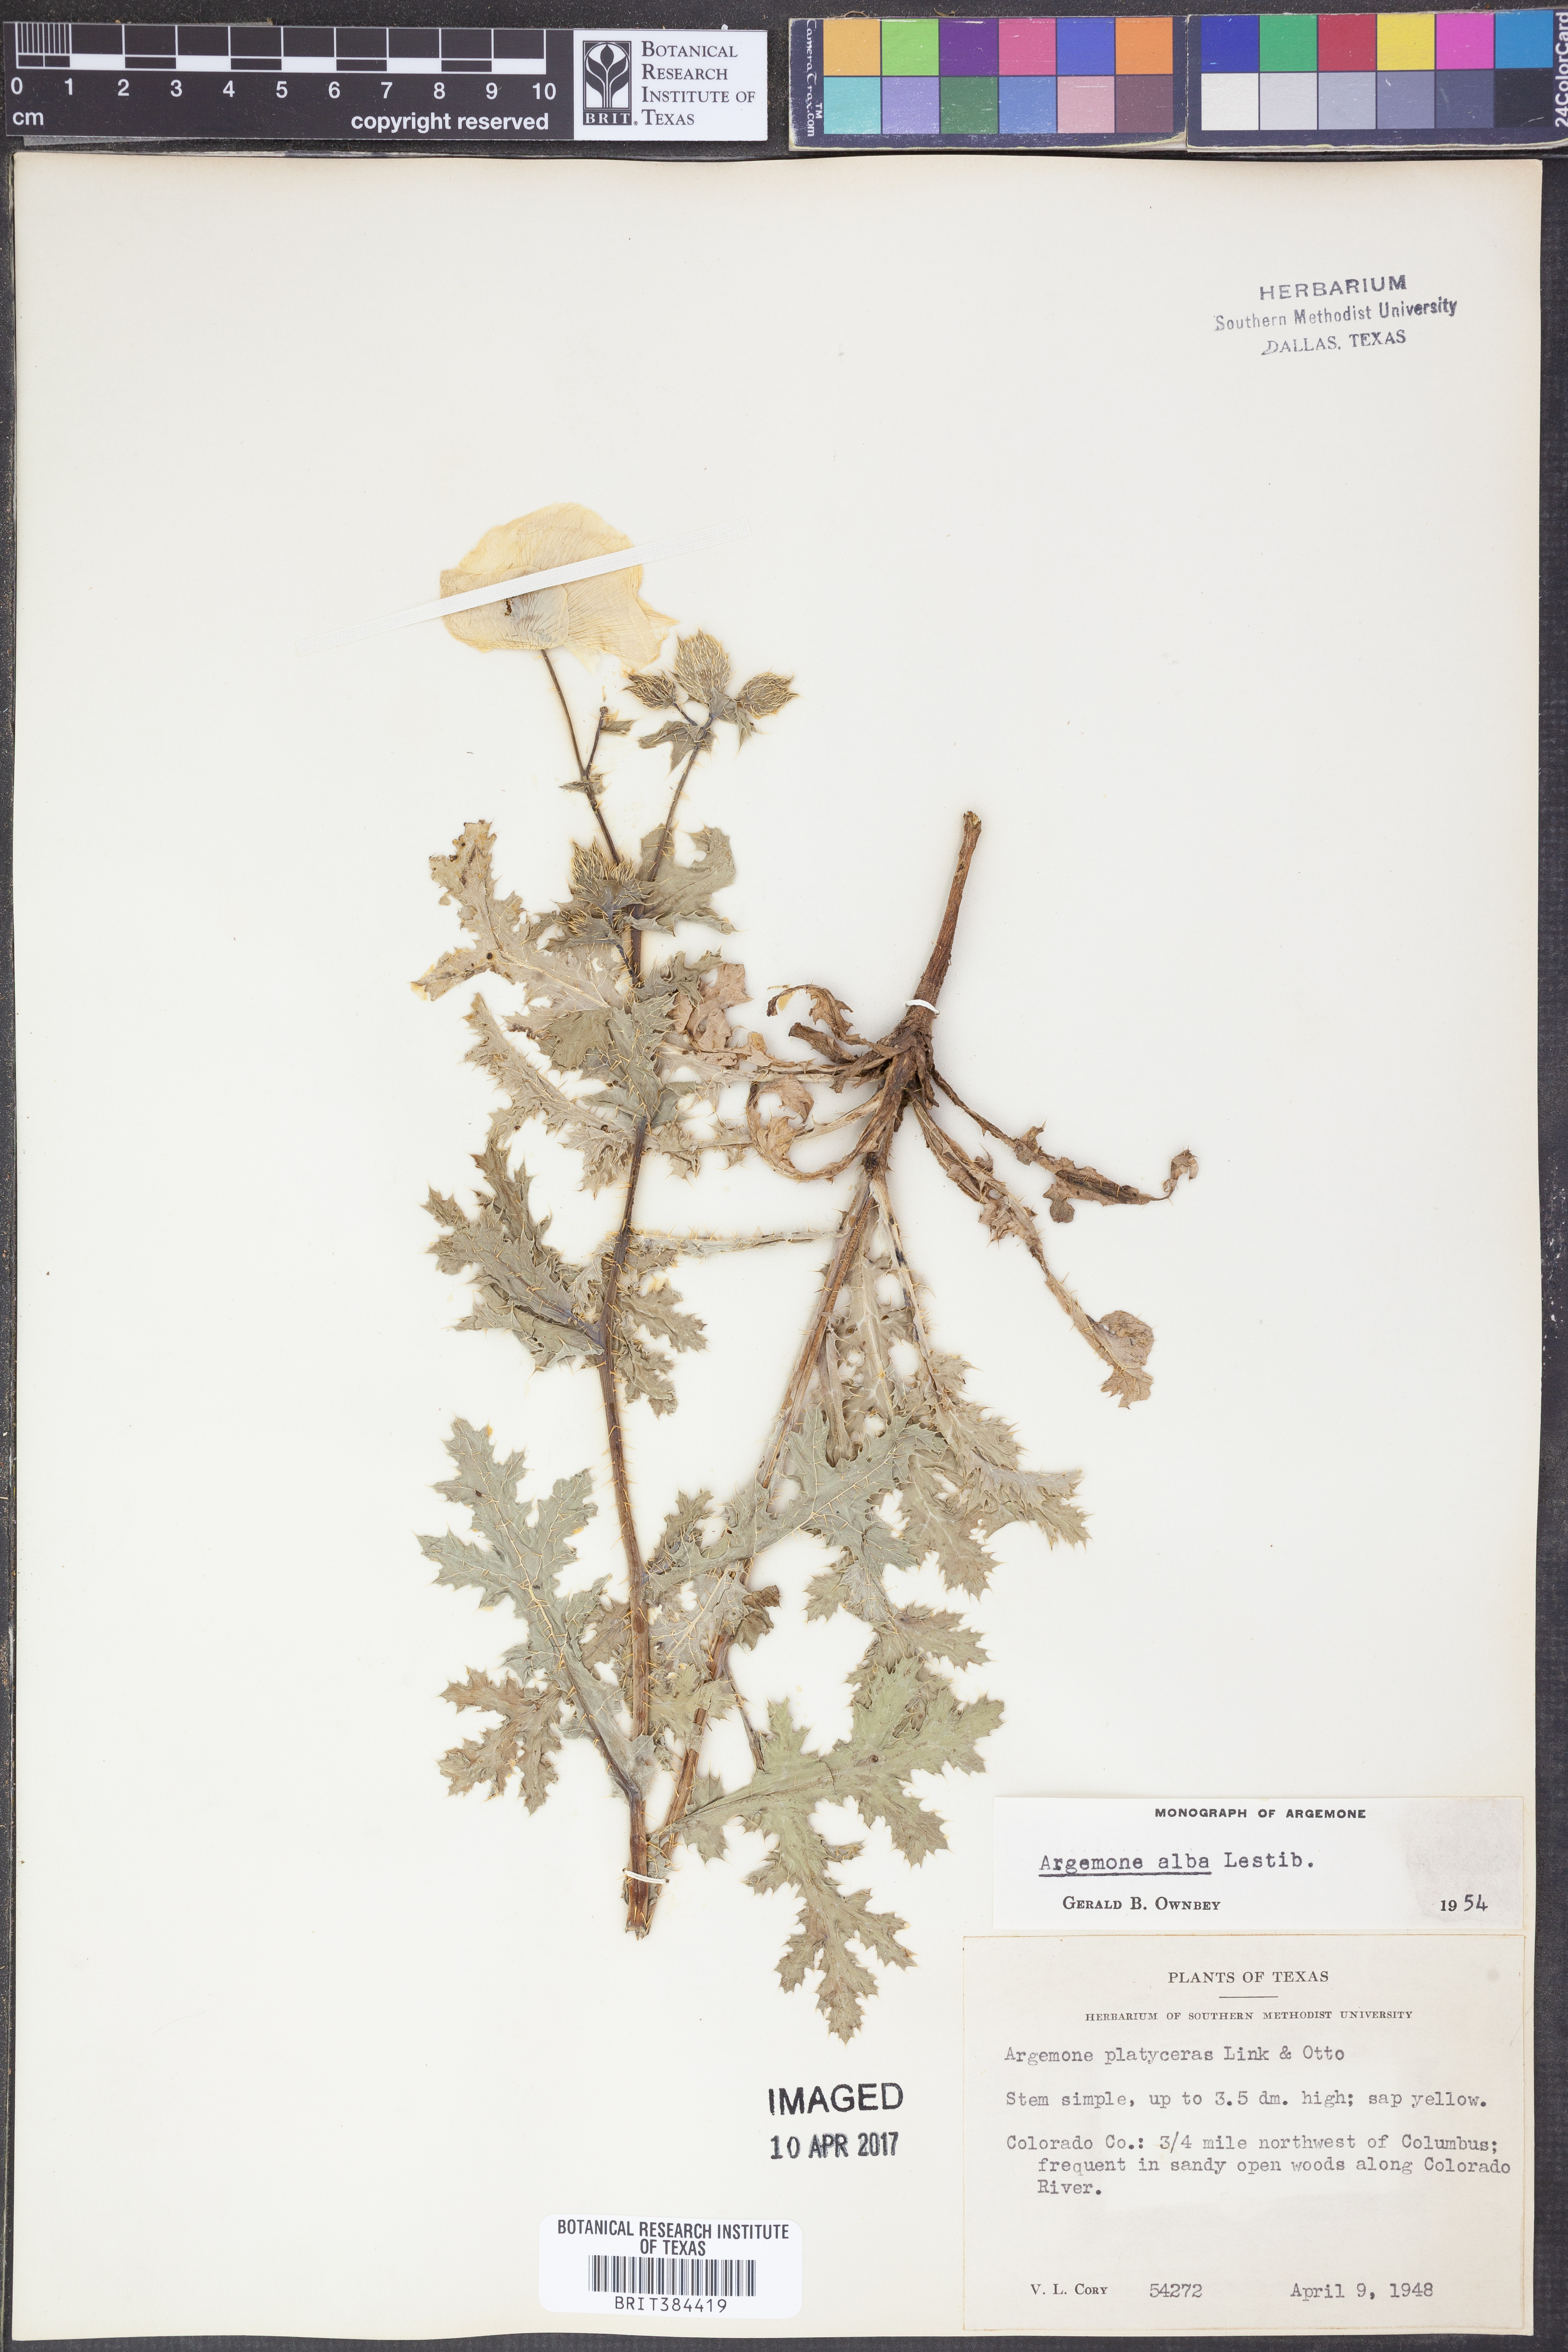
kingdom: Plantae
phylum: Tracheophyta
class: Magnoliopsida
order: Ranunculales
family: Papaveraceae
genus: Argemone
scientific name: Argemone albiflora
